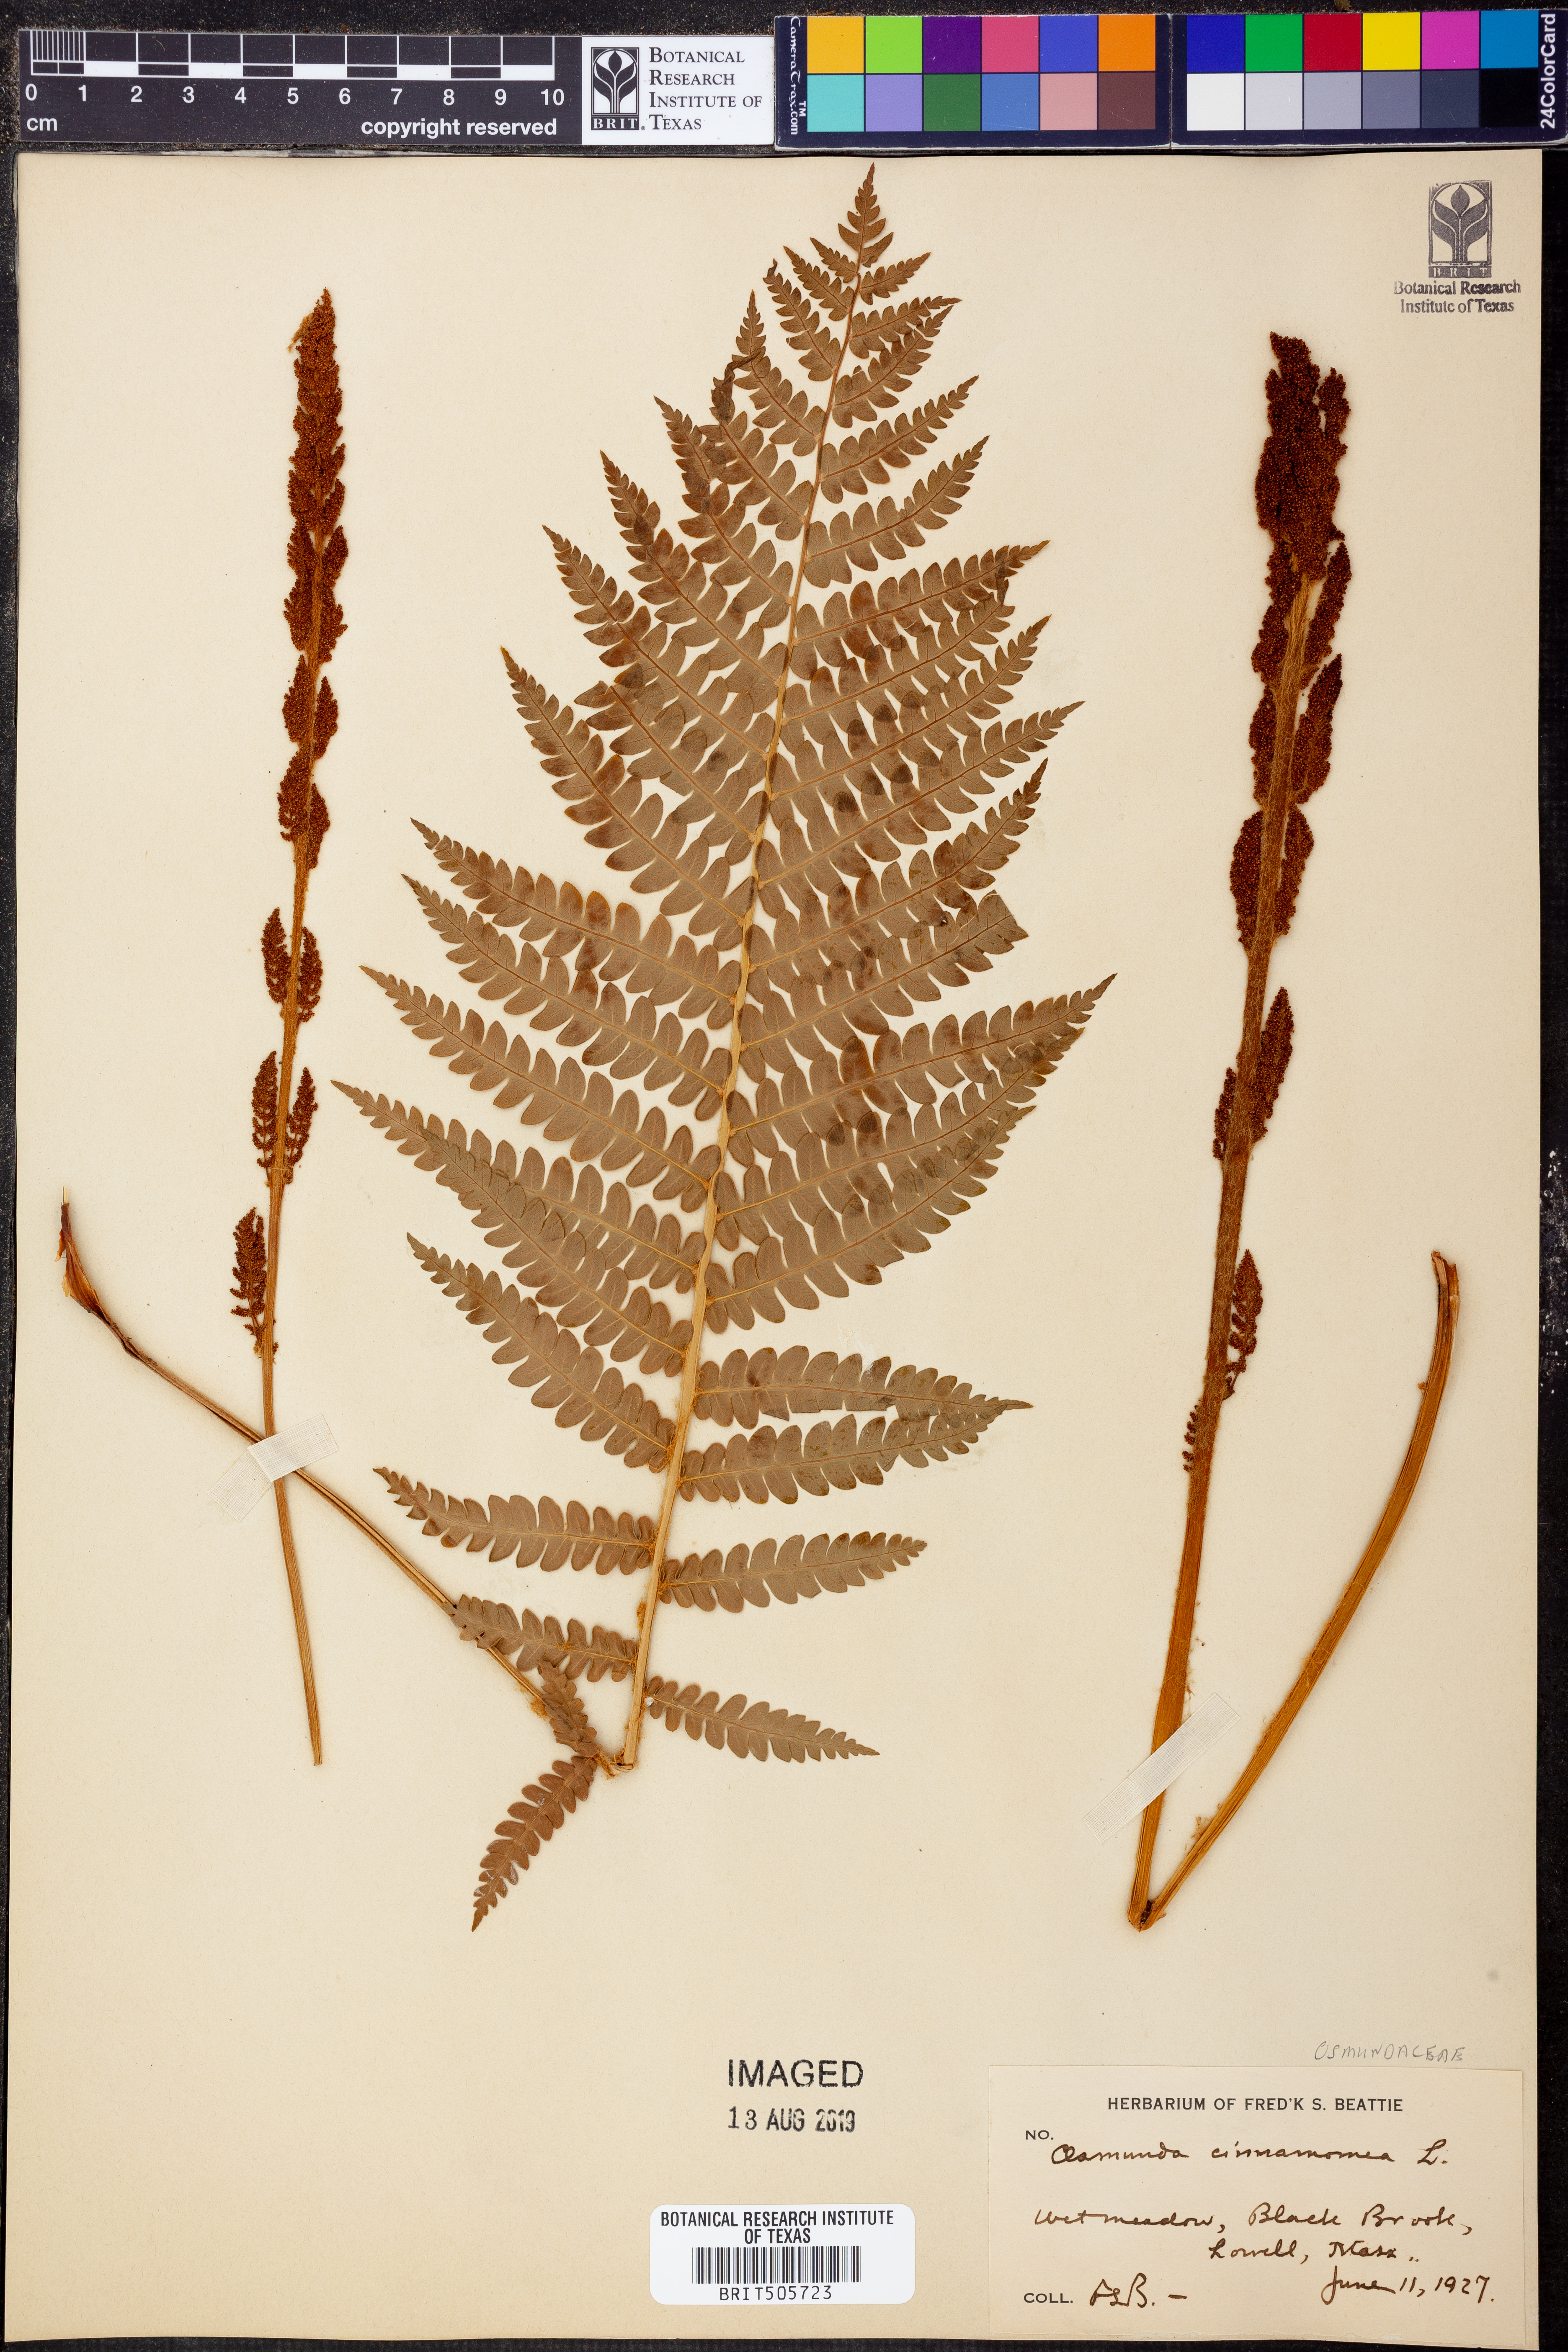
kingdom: Plantae
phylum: Tracheophyta
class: Polypodiopsida
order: Osmundales
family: Osmundaceae
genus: Osmundastrum
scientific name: Osmundastrum cinnamomeum
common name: Cinnamon fern
